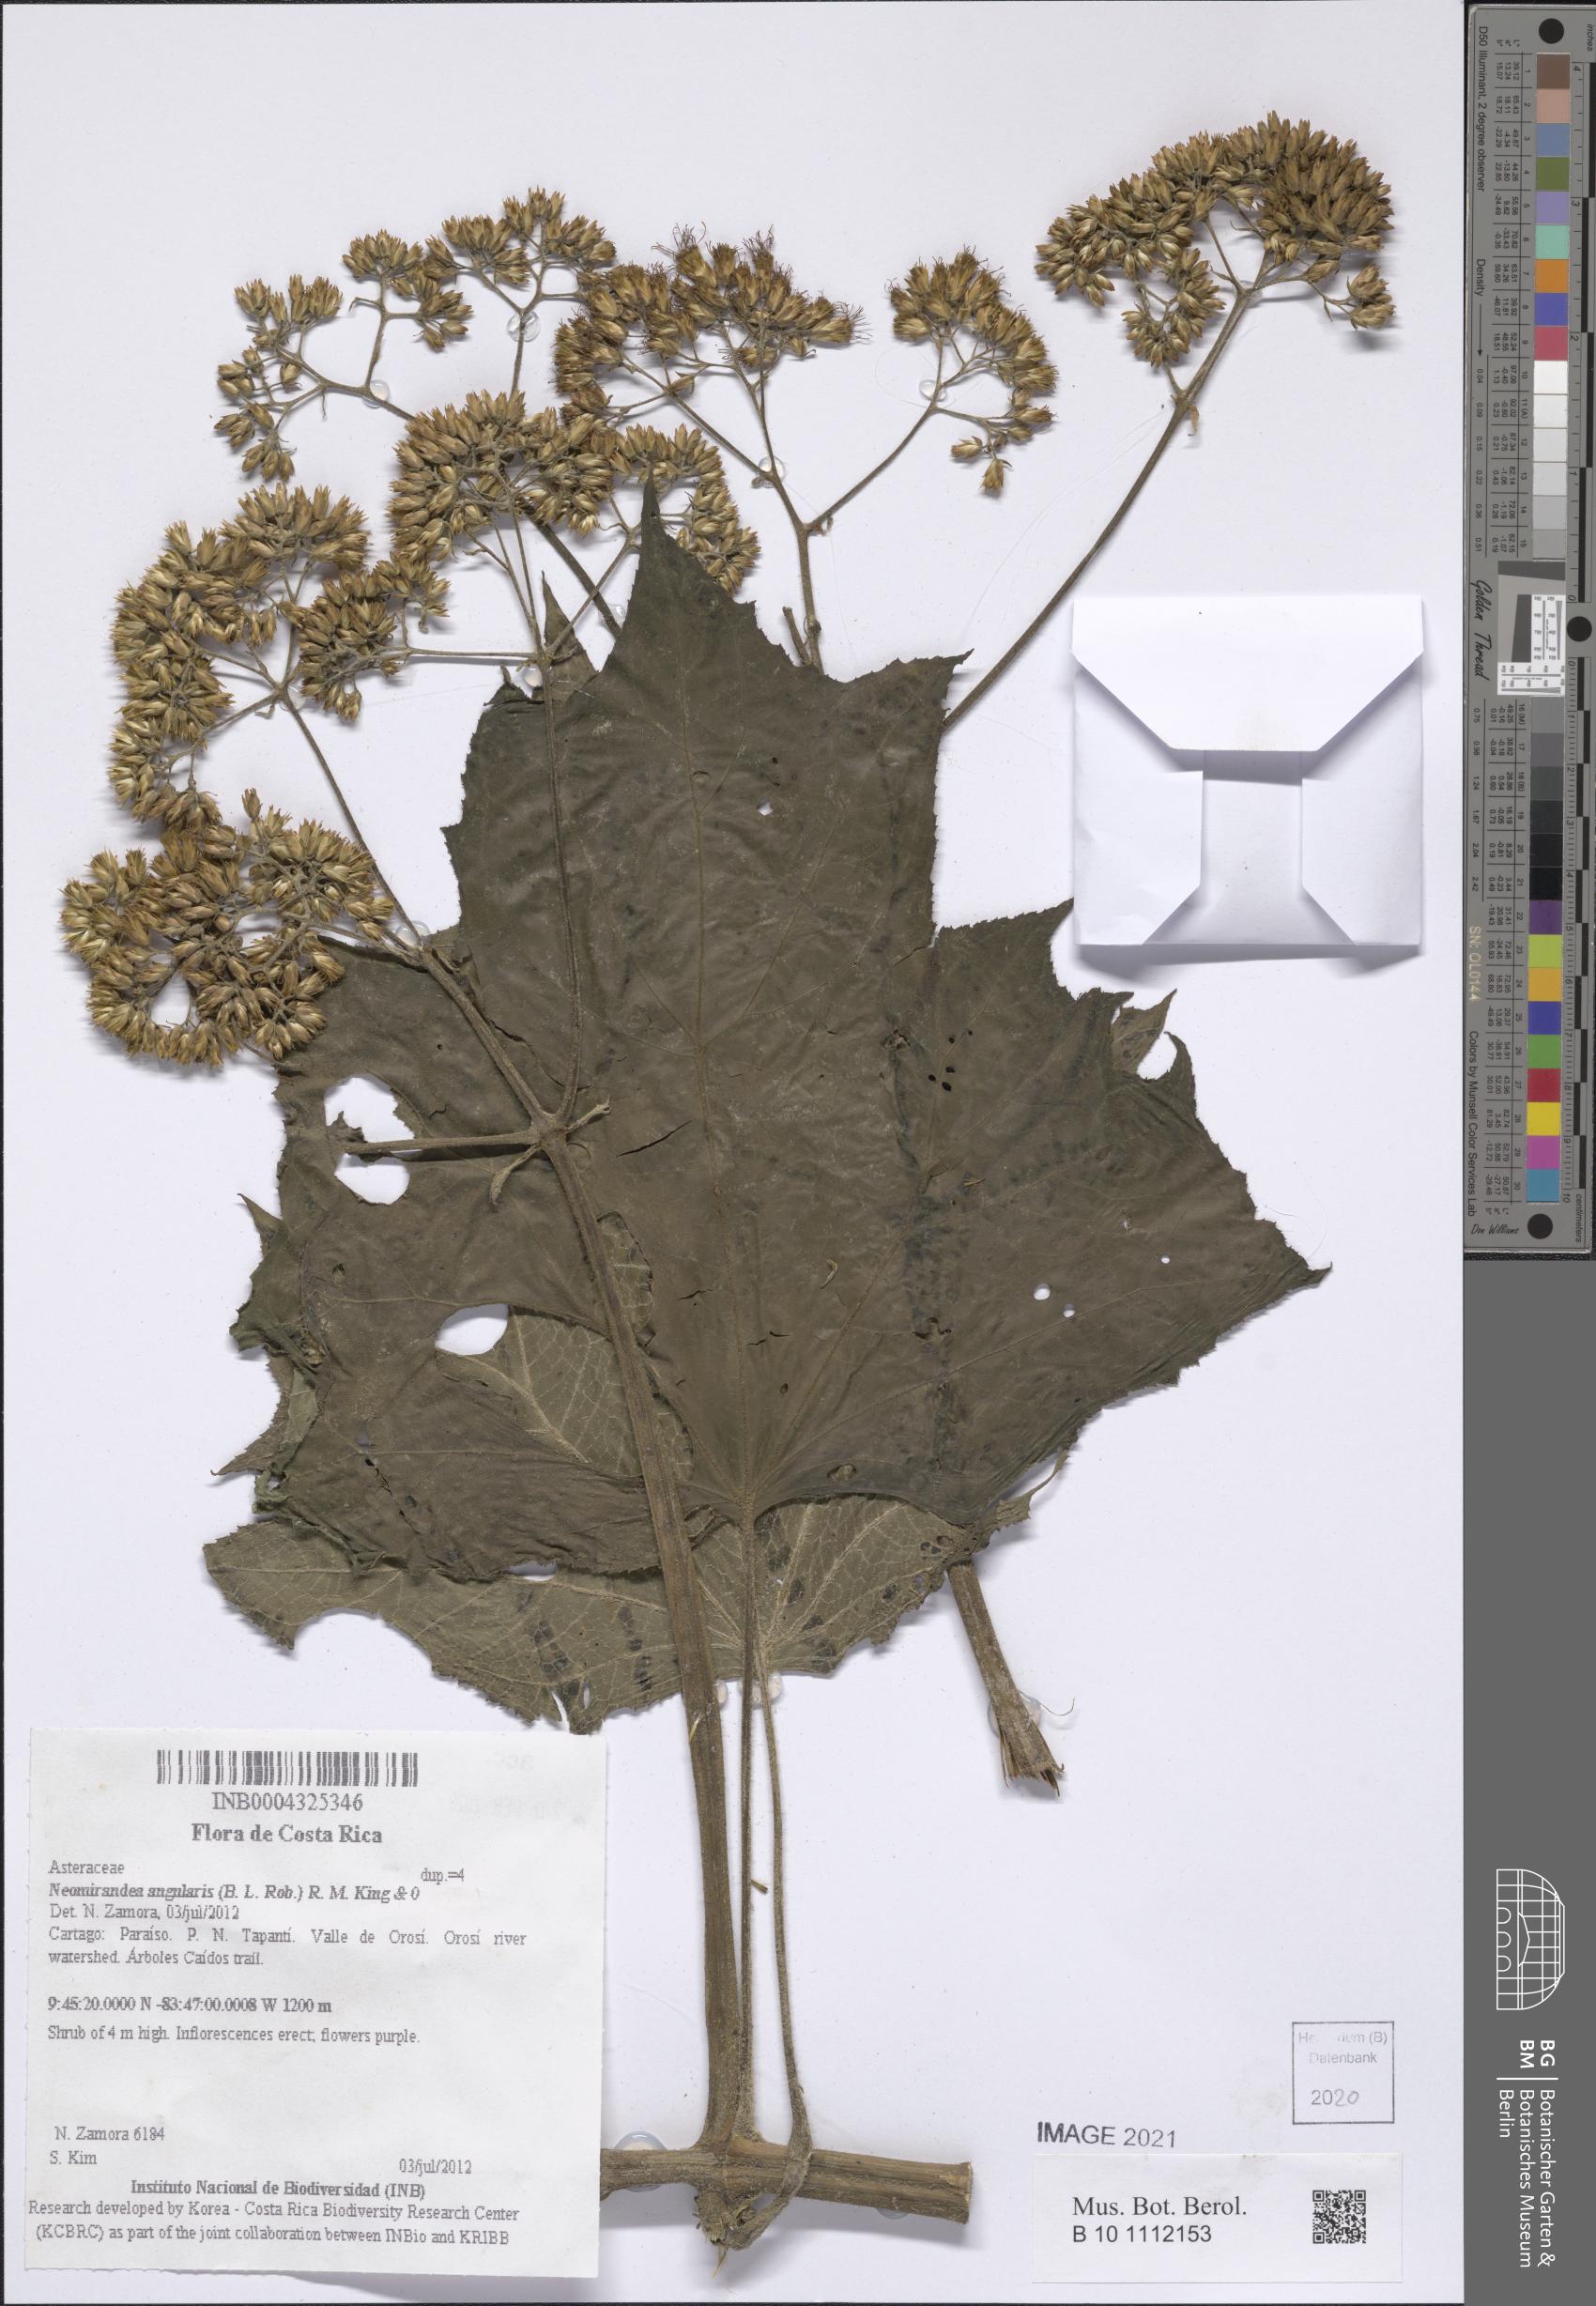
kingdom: Plantae
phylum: Tracheophyta
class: Magnoliopsida
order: Asterales
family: Asteraceae
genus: Neomirandea
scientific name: Neomirandea angularis
